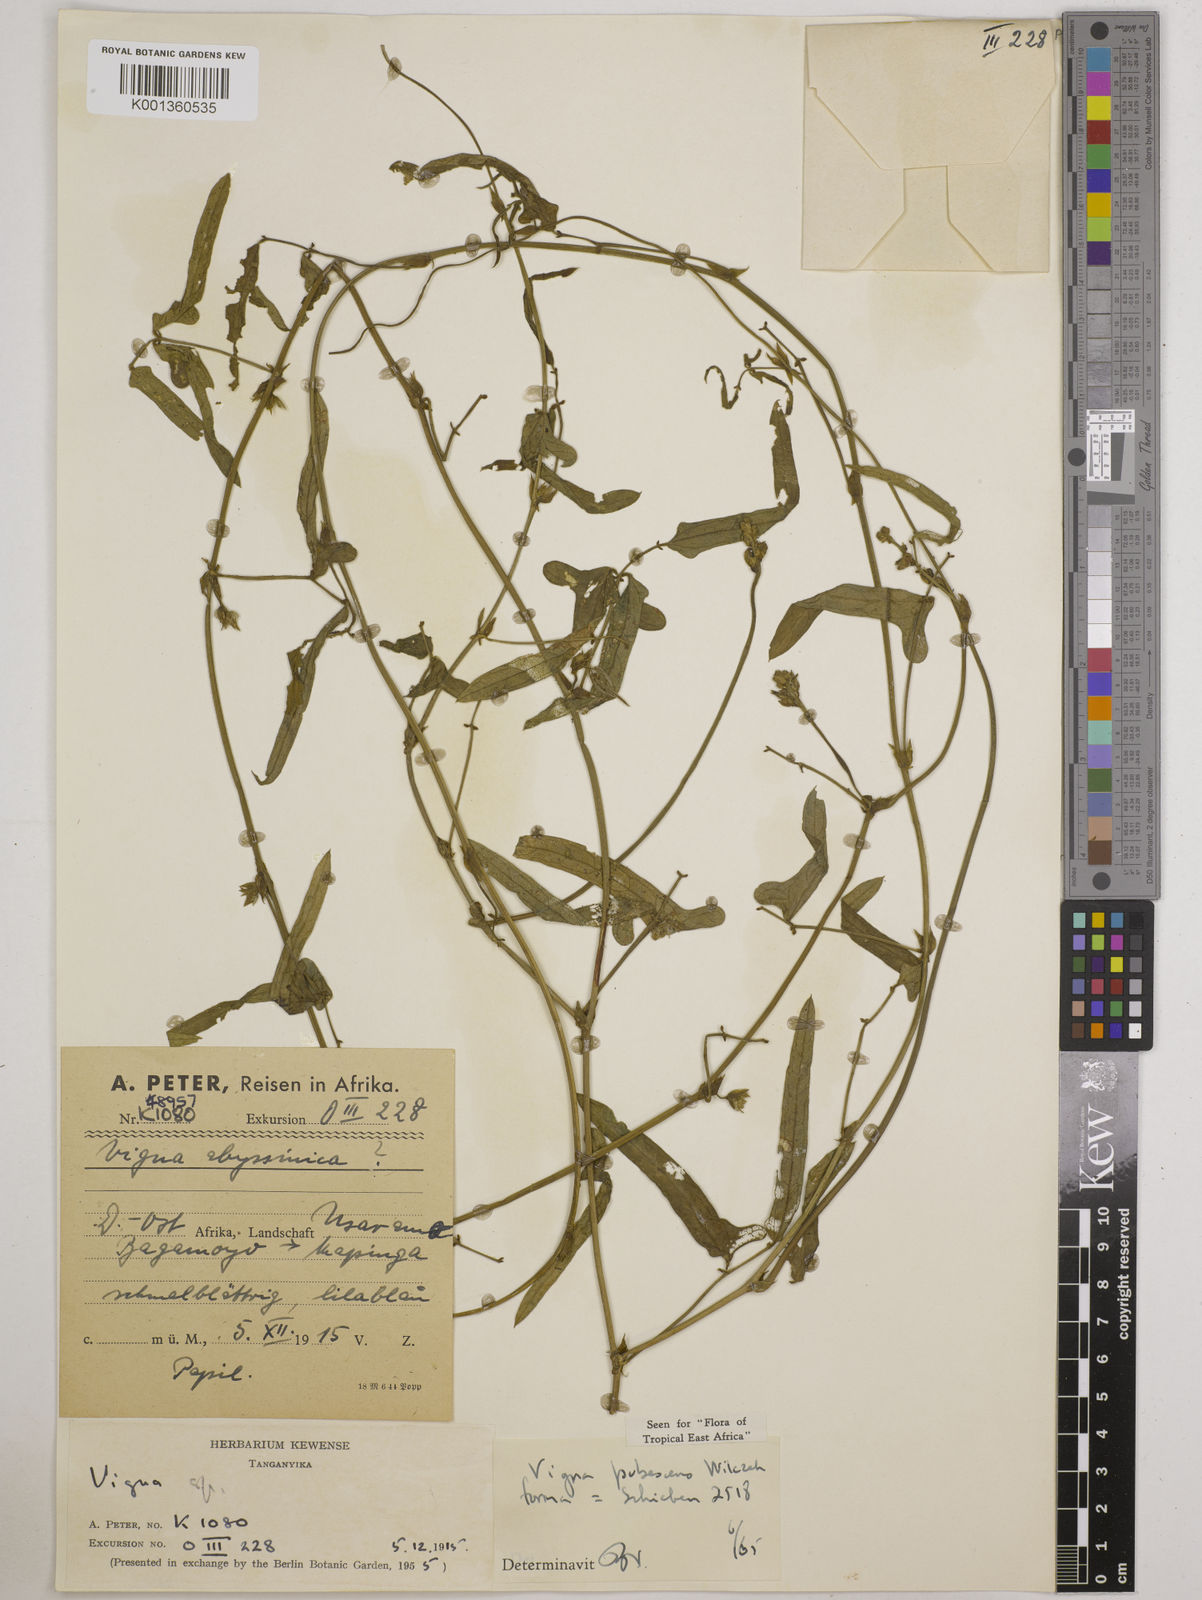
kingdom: Plantae
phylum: Tracheophyta
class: Magnoliopsida
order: Fabales
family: Fabaceae
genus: Vigna
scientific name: Vigna unguiculata
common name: Cowpea
